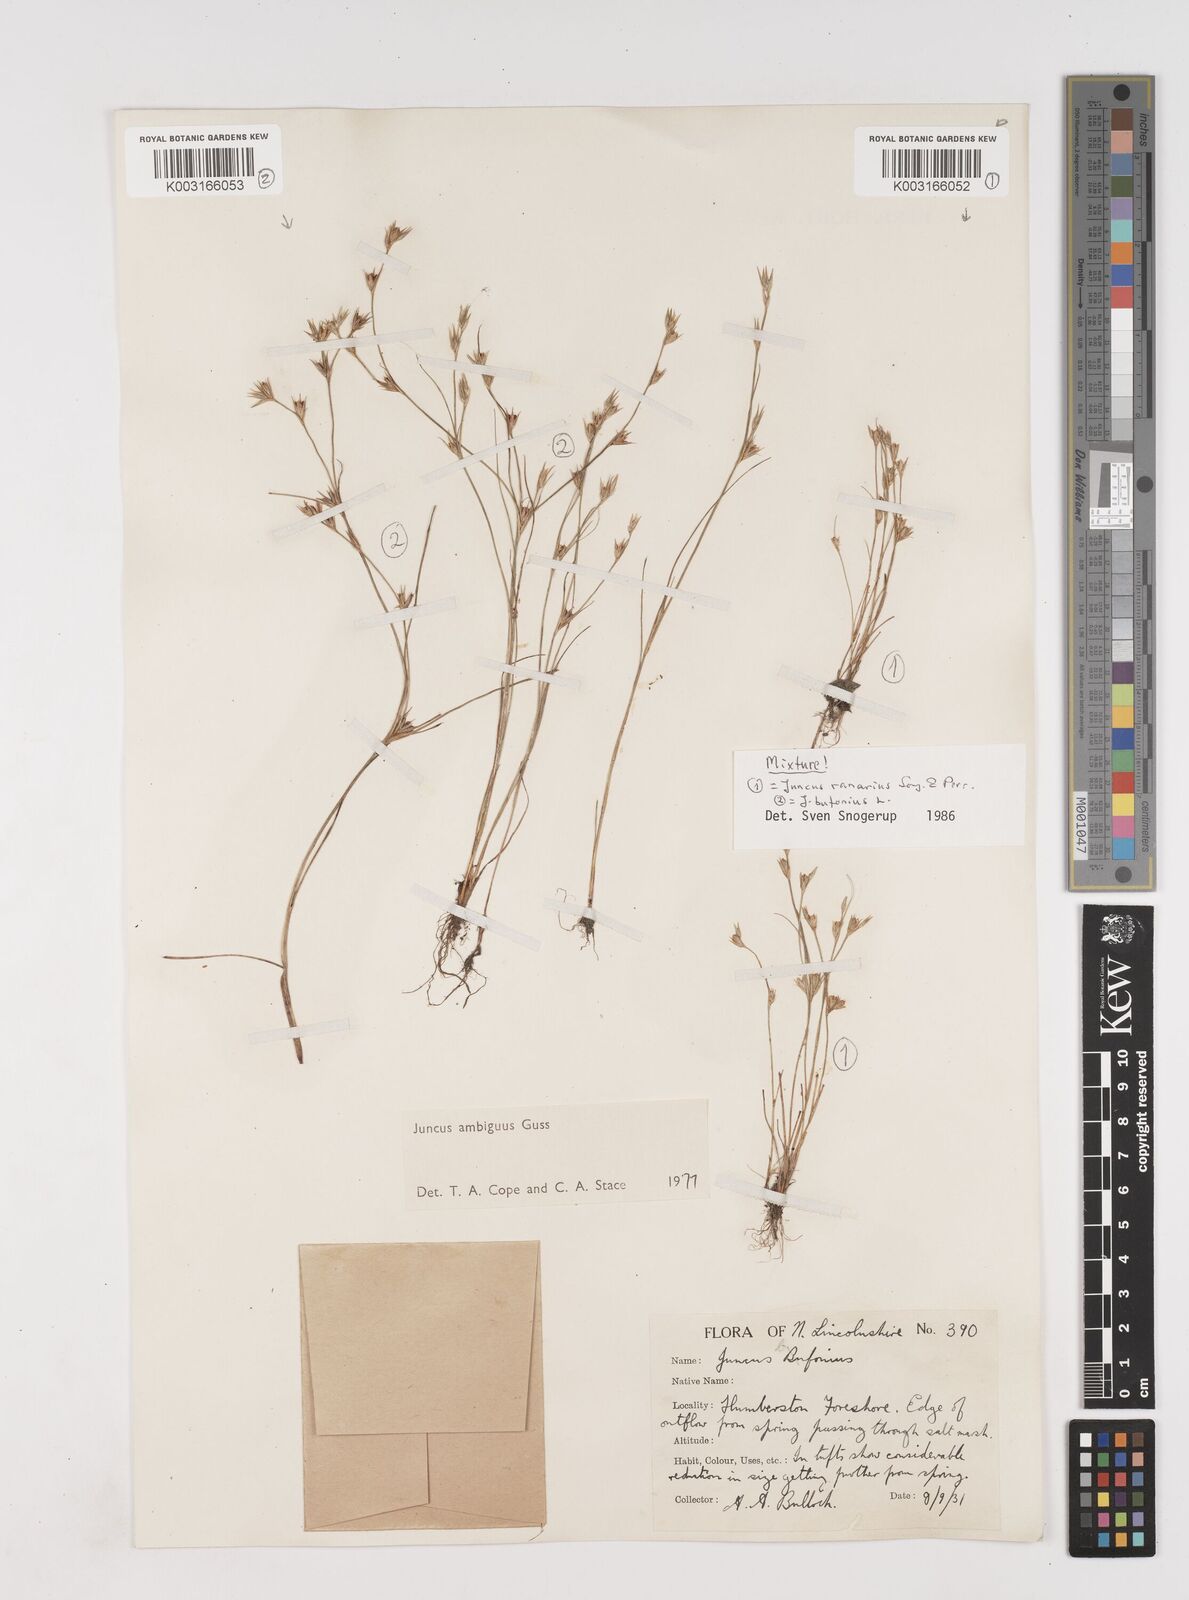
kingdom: Plantae
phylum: Tracheophyta
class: Liliopsida
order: Poales
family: Juncaceae
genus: Juncus
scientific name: Juncus hybridus
